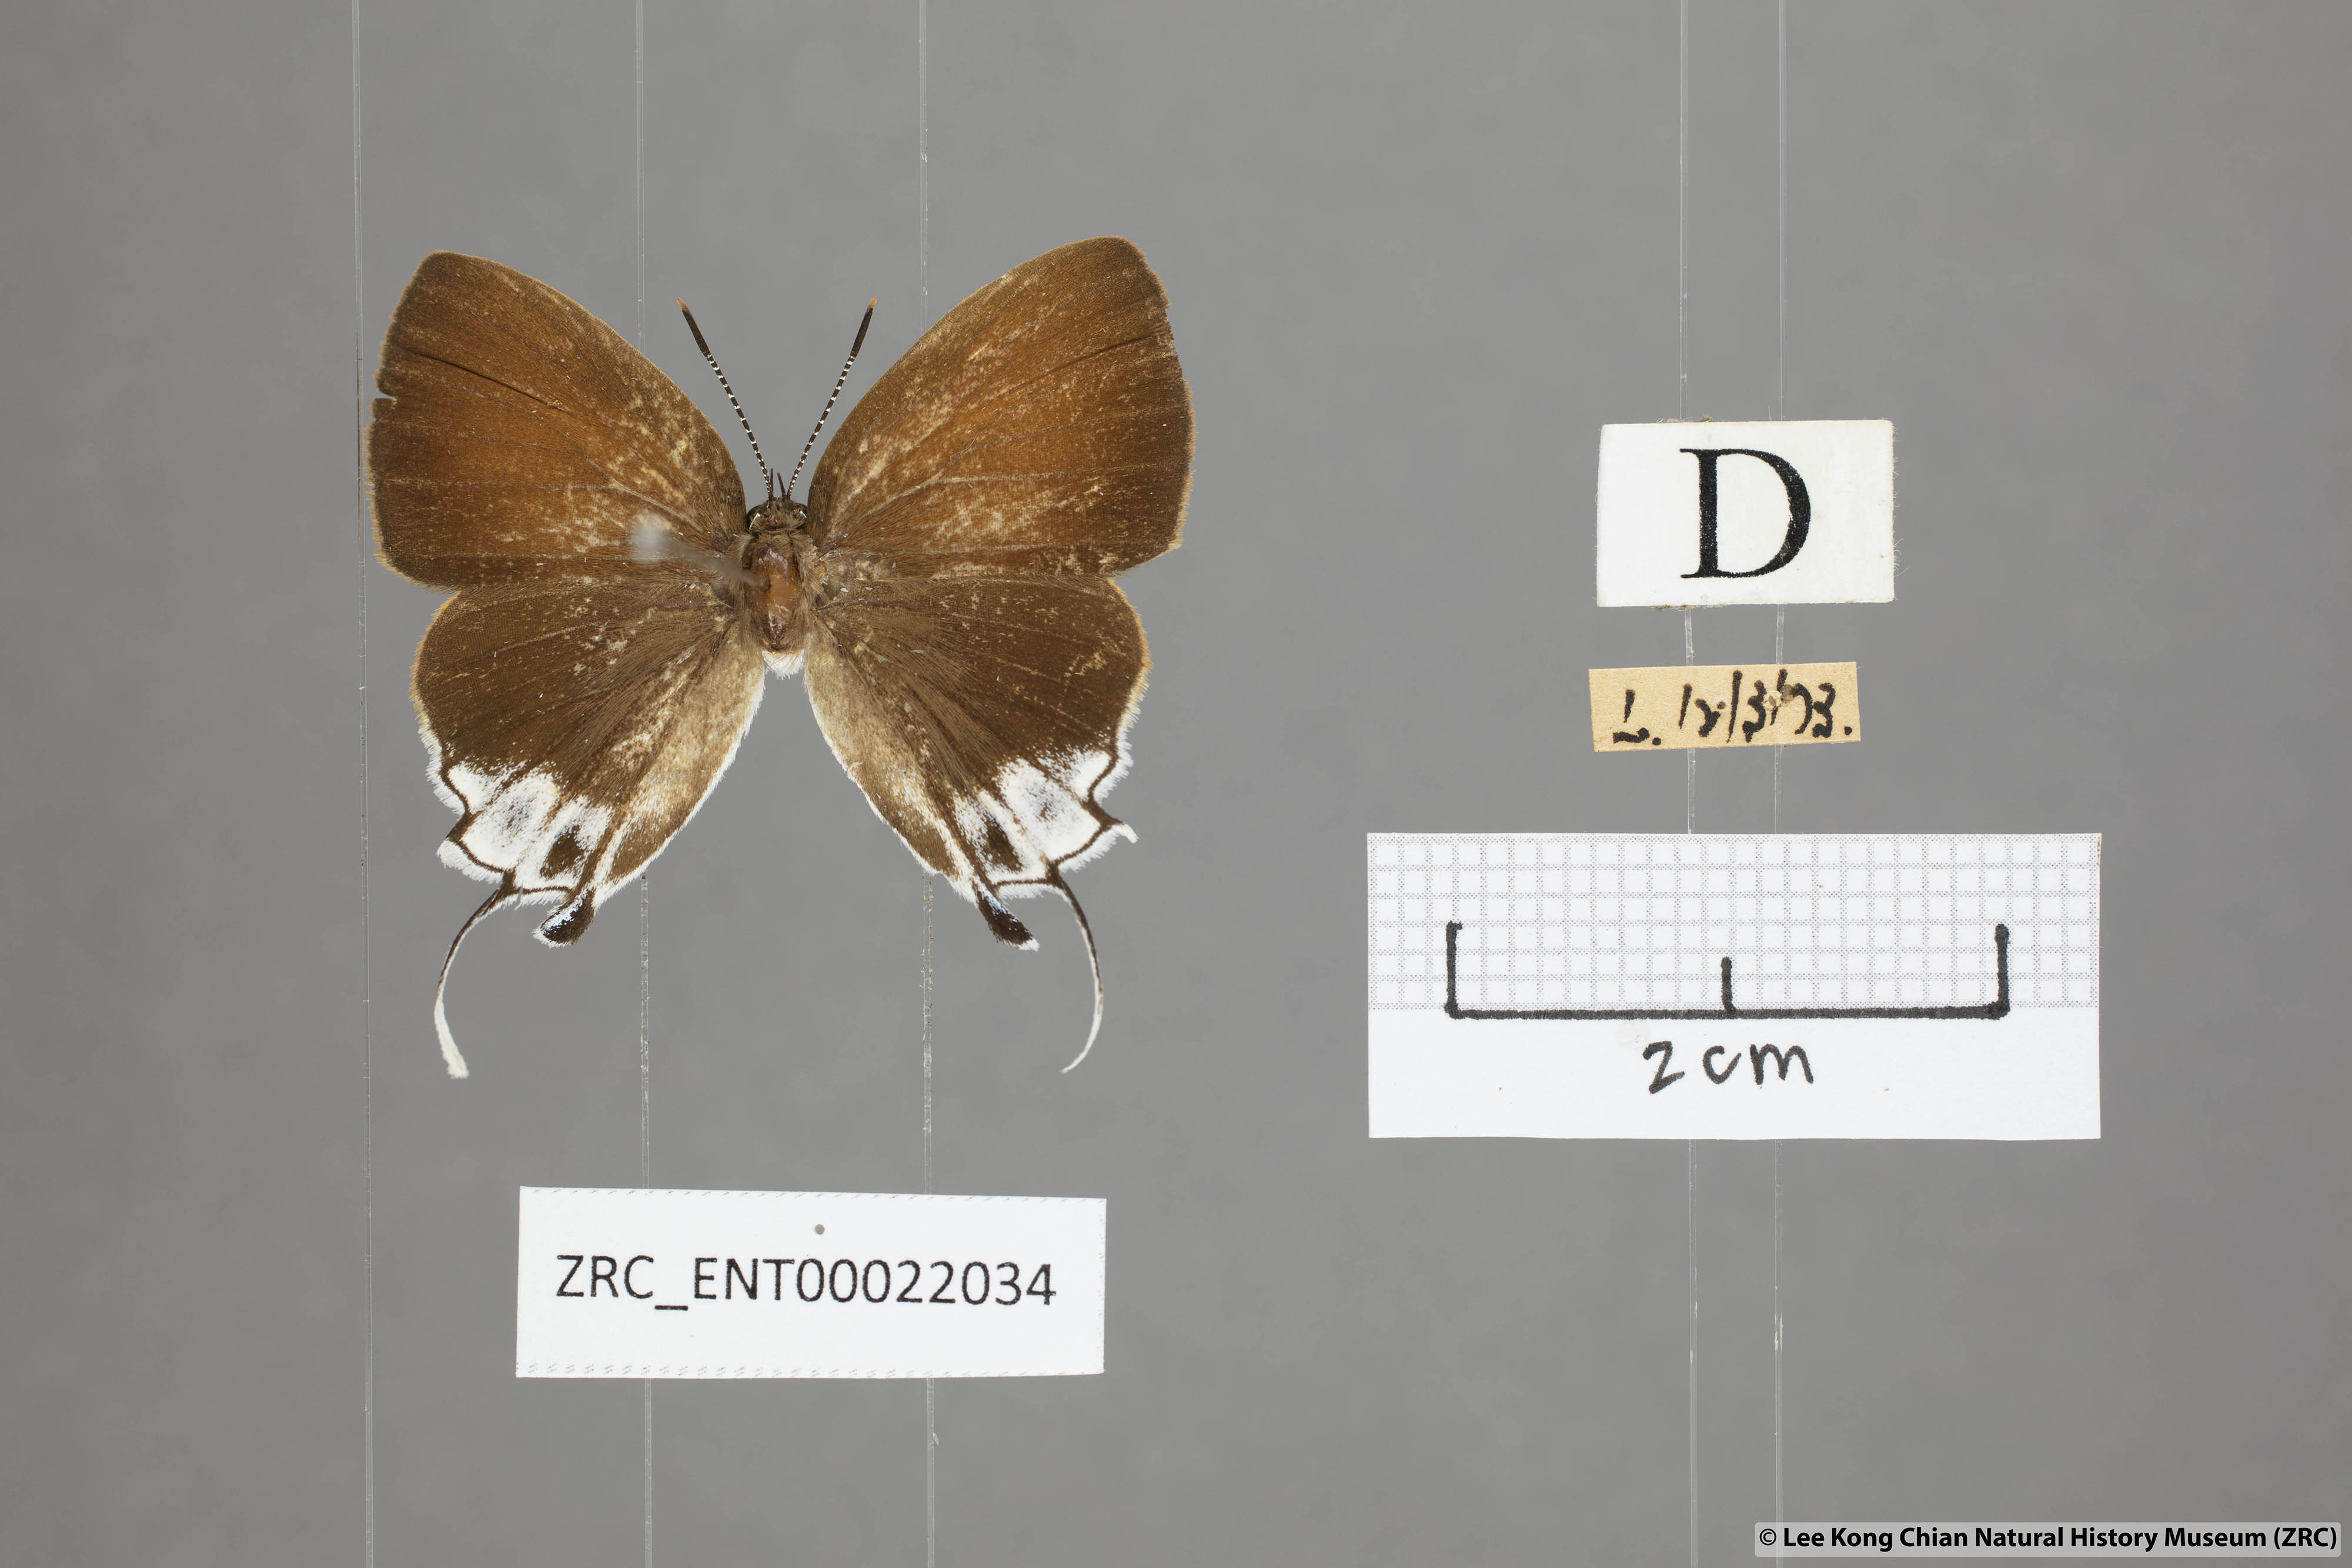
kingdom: Animalia
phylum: Arthropoda
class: Insecta
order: Lepidoptera
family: Lycaenidae
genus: Sithon
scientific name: Sithon nedymond
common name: Plush
